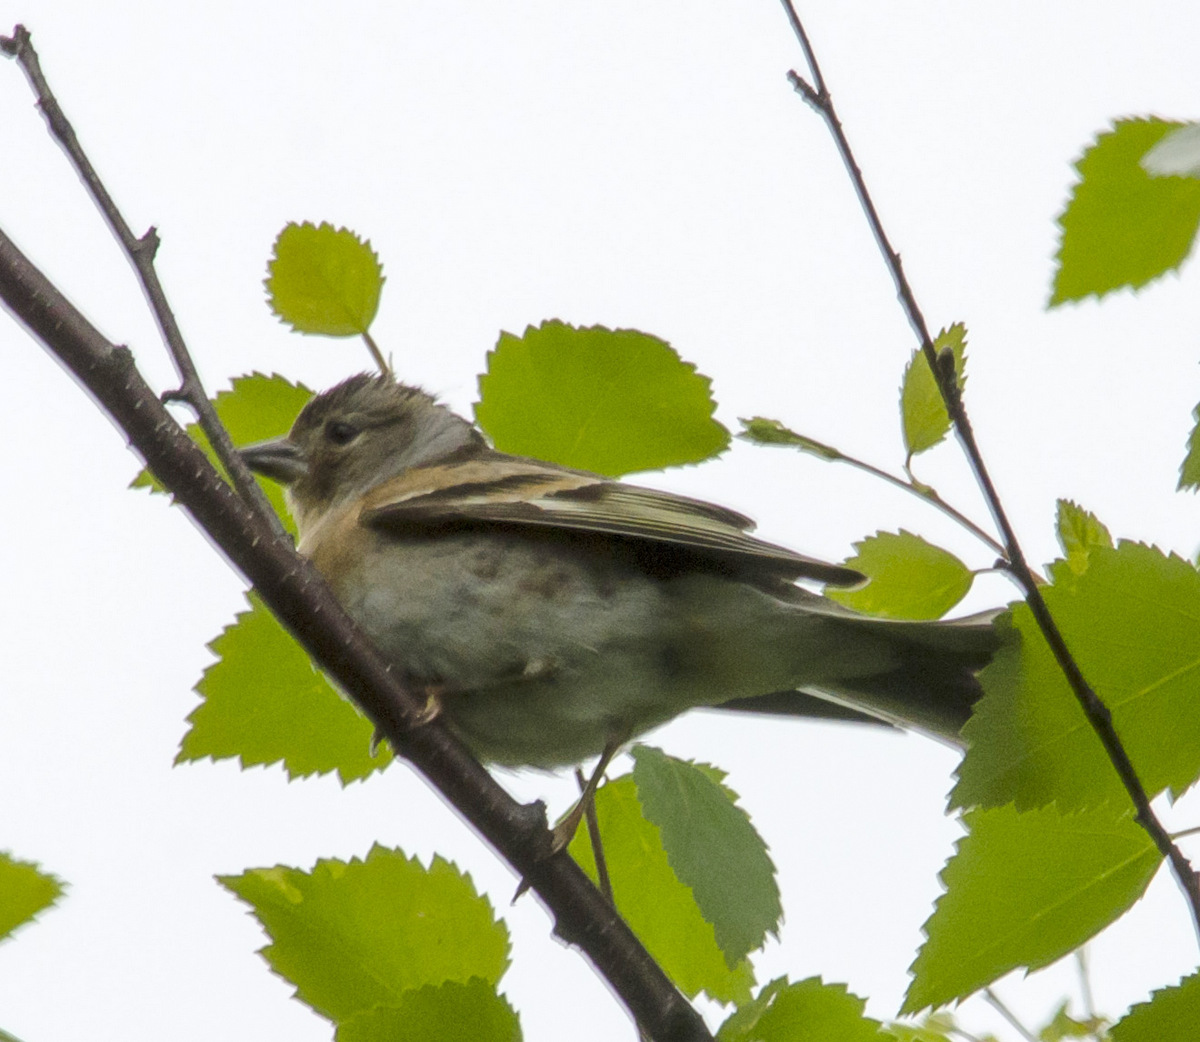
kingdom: Animalia
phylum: Chordata
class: Aves
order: Passeriformes
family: Fringillidae
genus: Fringilla
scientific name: Fringilla montifringilla
